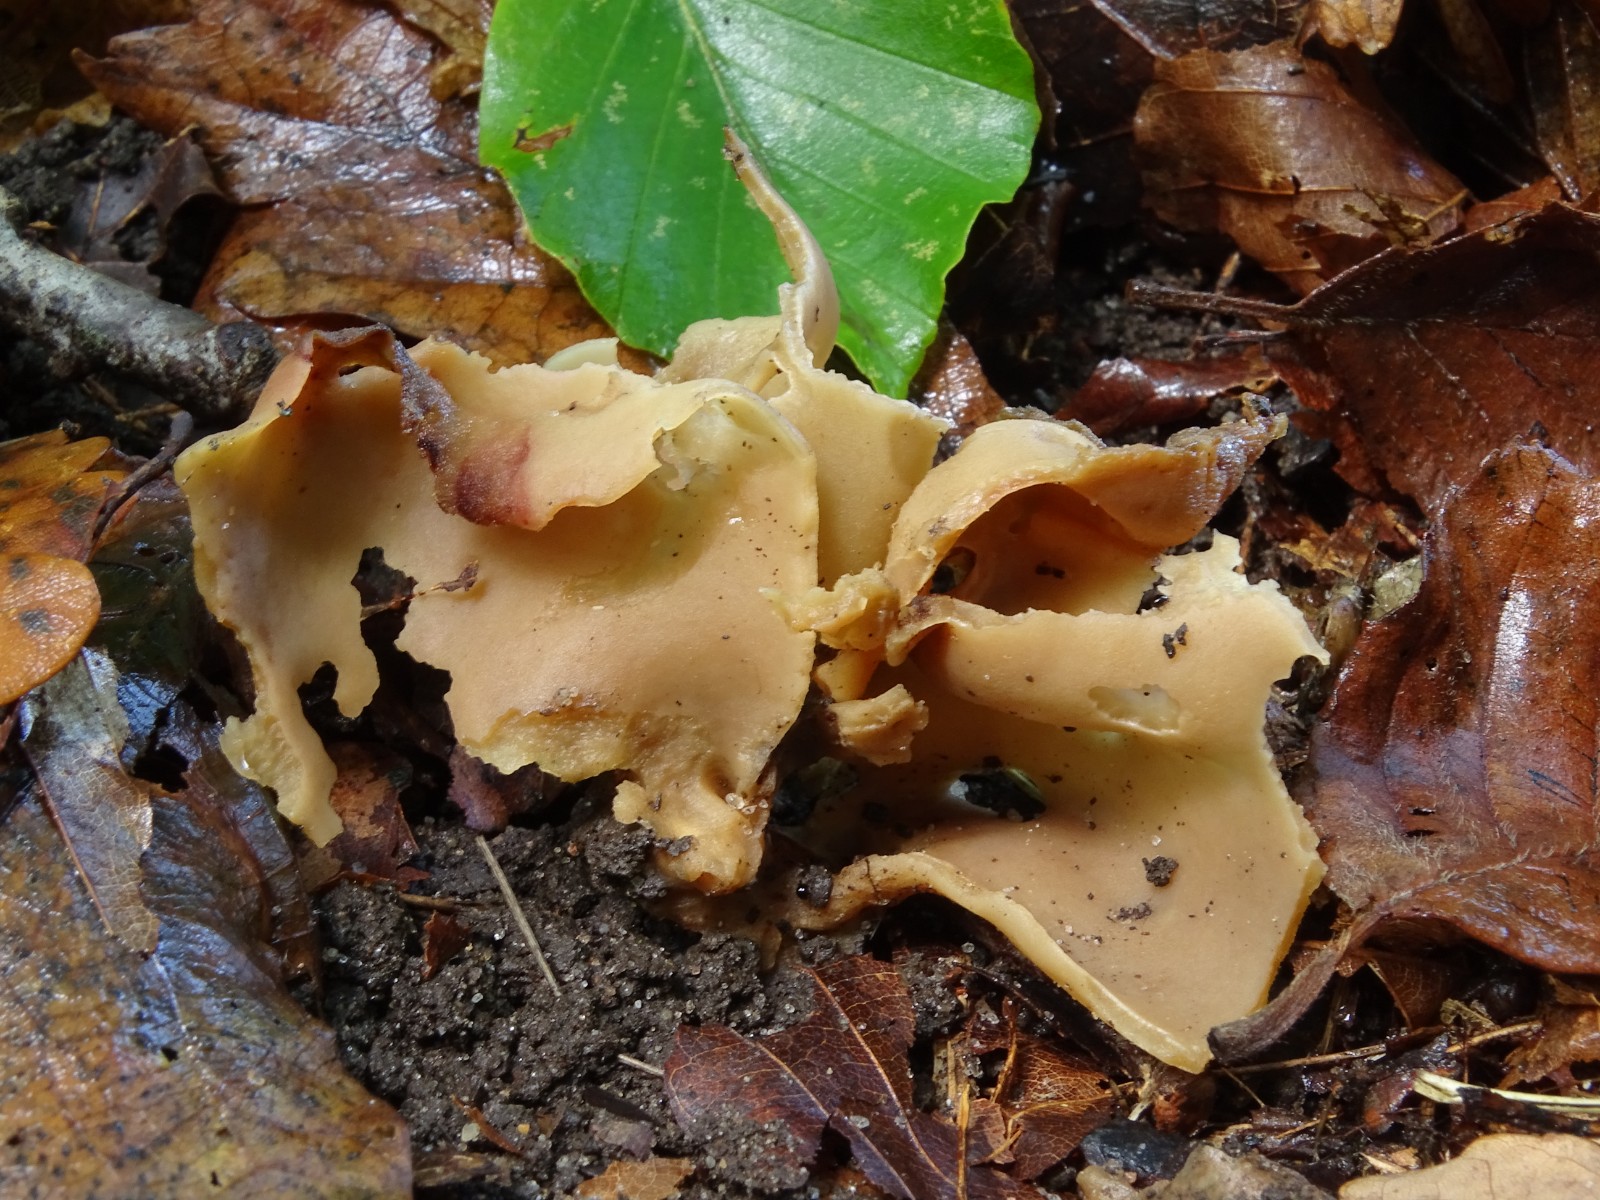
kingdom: Fungi
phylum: Ascomycota
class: Pezizomycetes
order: Pezizales
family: Otideaceae
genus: Otidea
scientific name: Otidea alutacea
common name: læder-ørebæger
